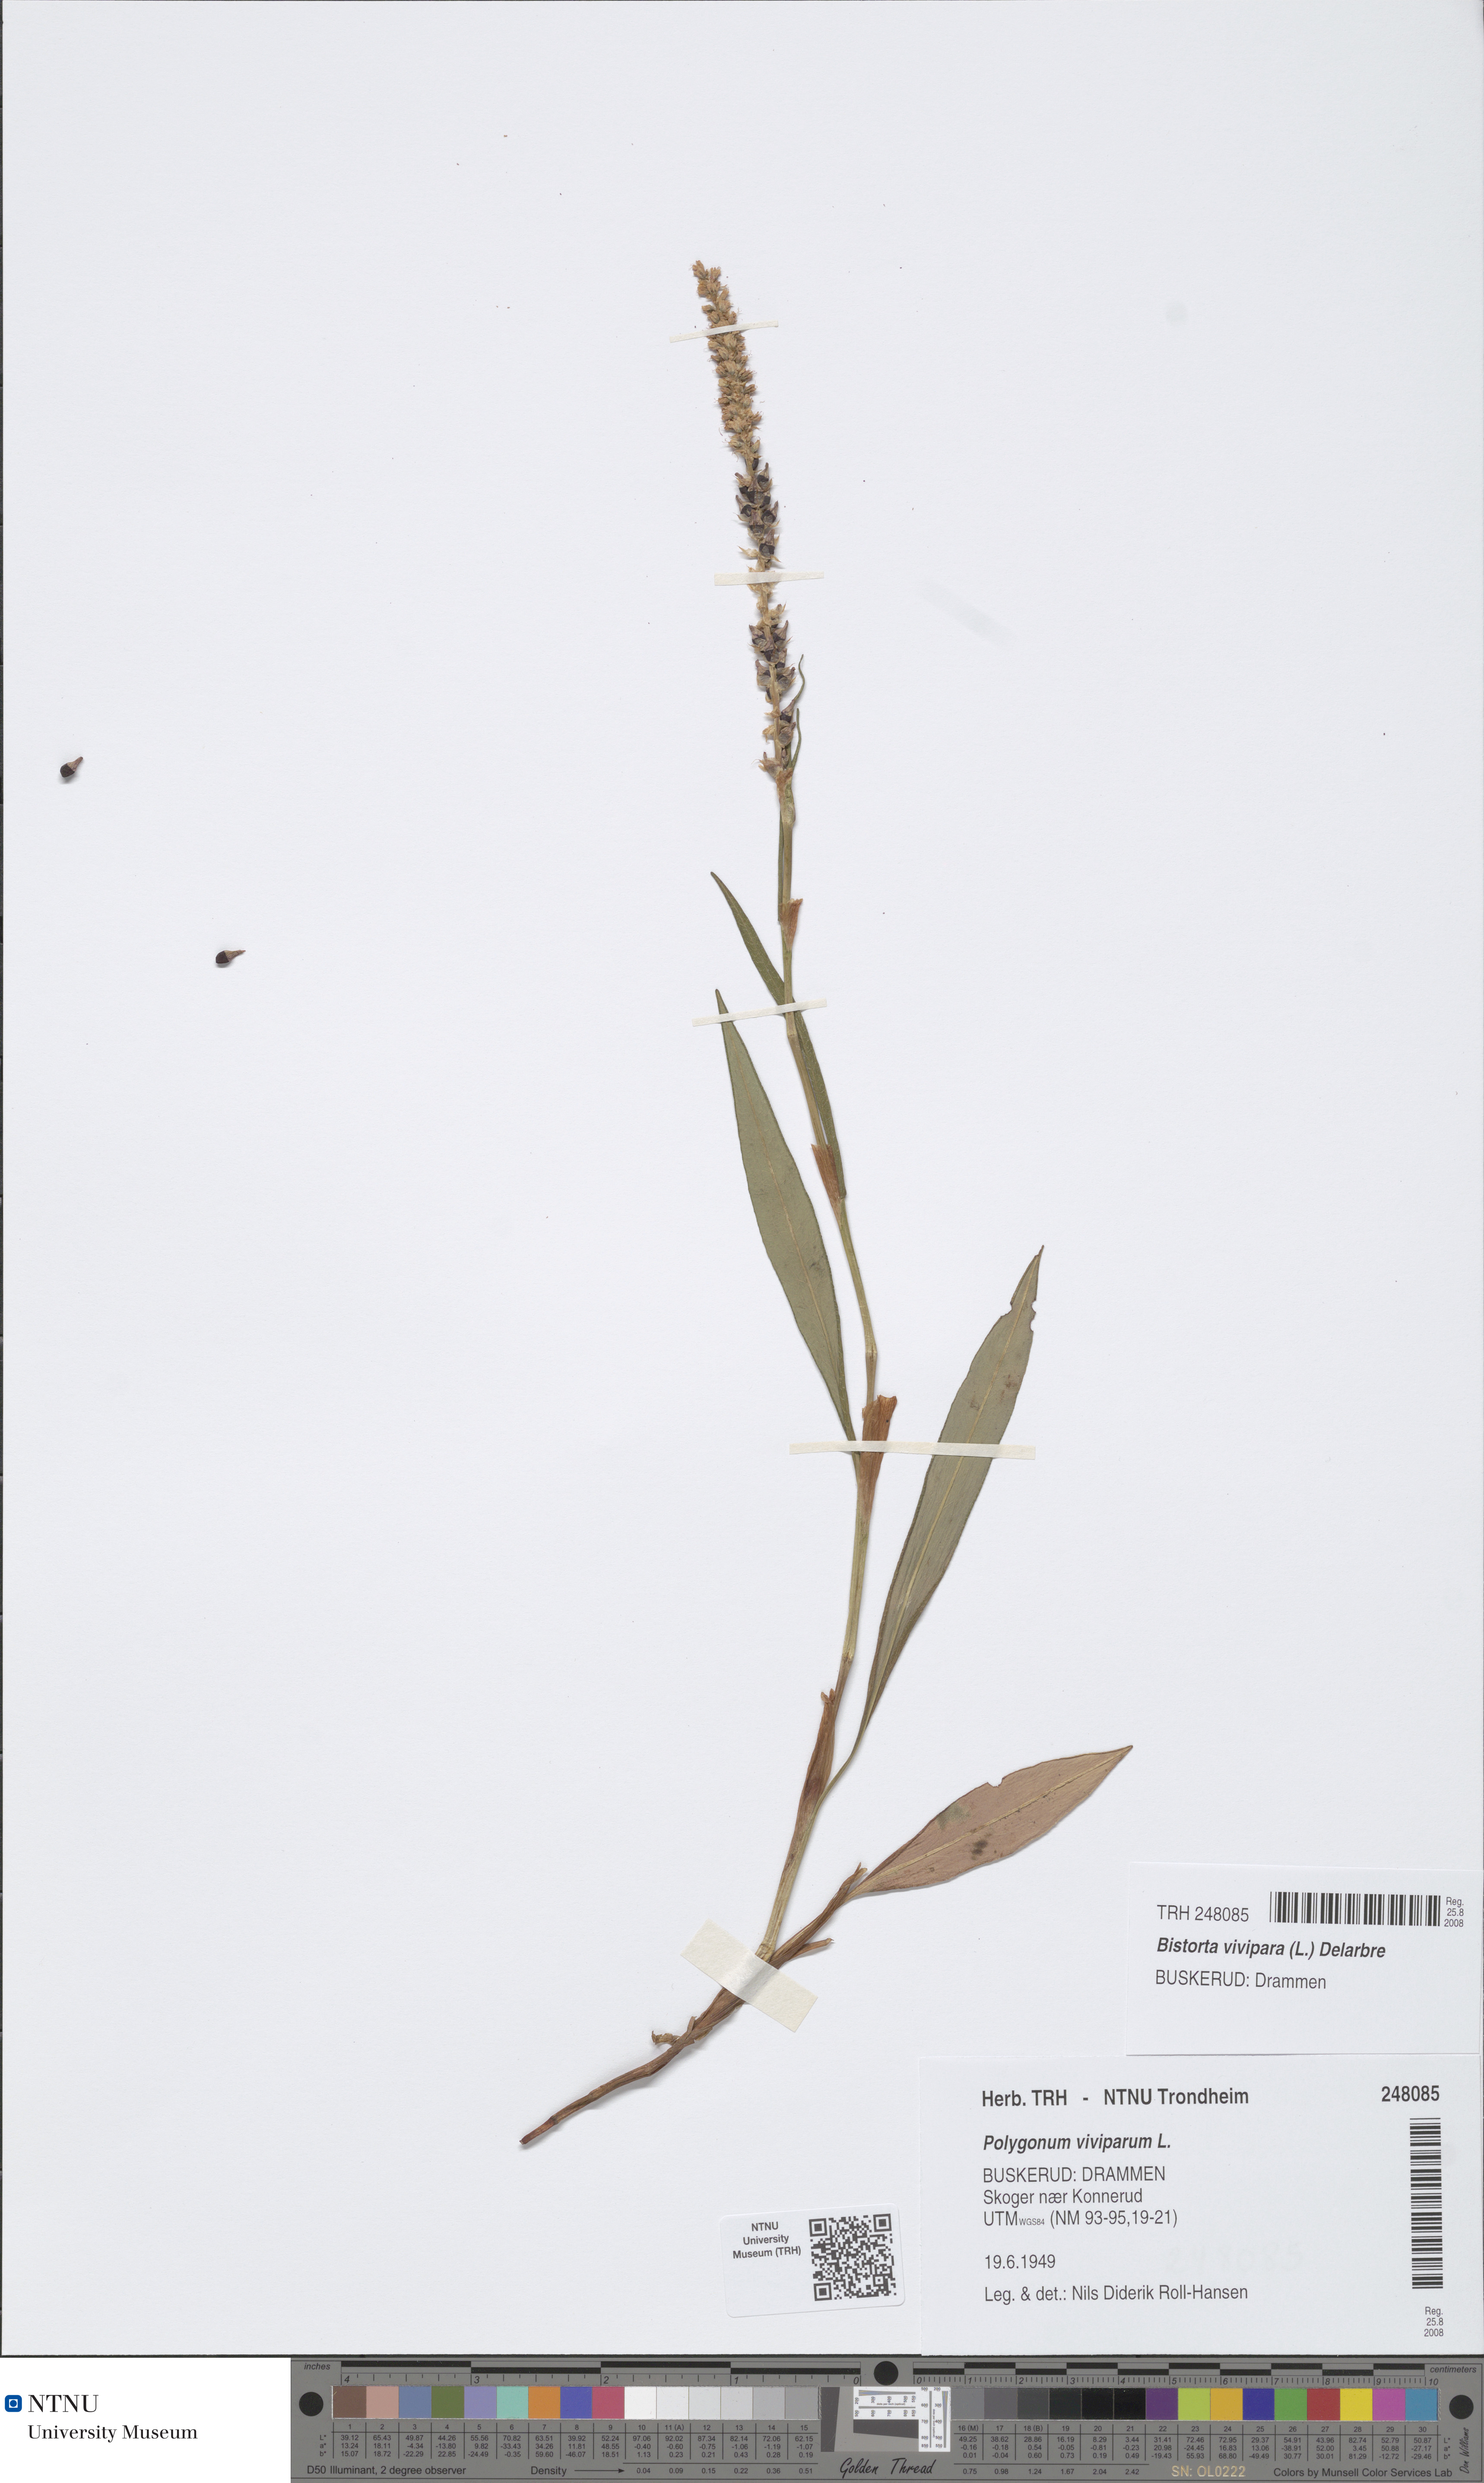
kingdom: Plantae
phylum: Tracheophyta
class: Magnoliopsida
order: Caryophyllales
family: Polygonaceae
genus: Bistorta
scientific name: Bistorta vivipara
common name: Alpine bistort
